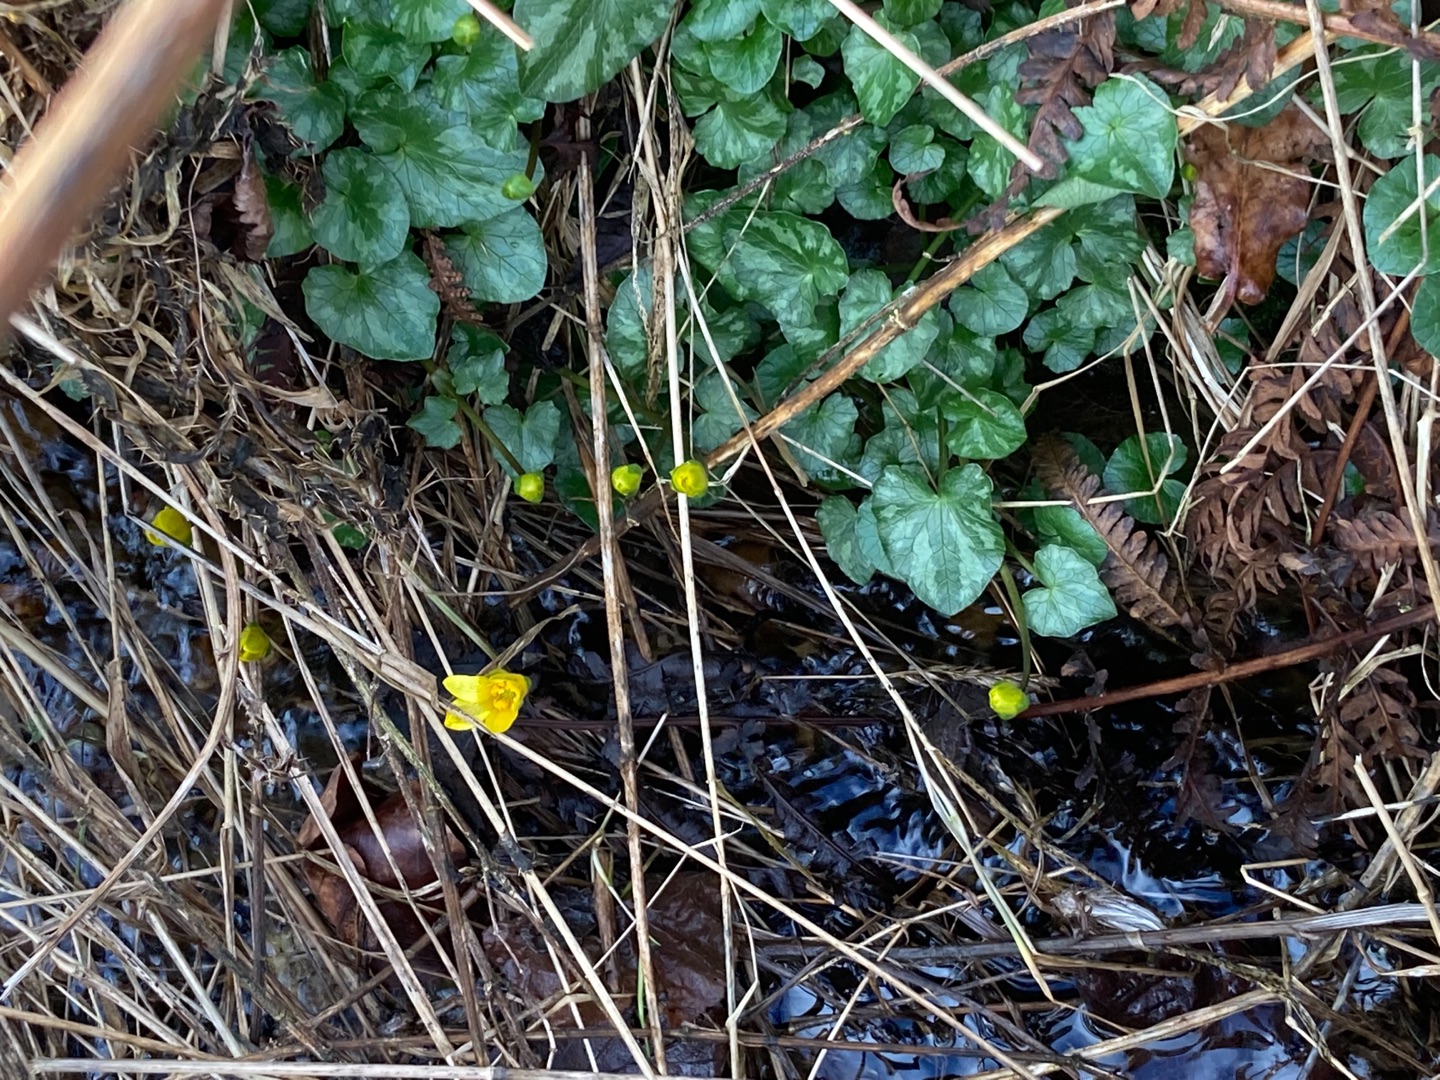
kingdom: Plantae
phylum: Tracheophyta
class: Magnoliopsida
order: Ranunculales
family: Ranunculaceae
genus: Ficaria
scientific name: Ficaria verna
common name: Vorterod
